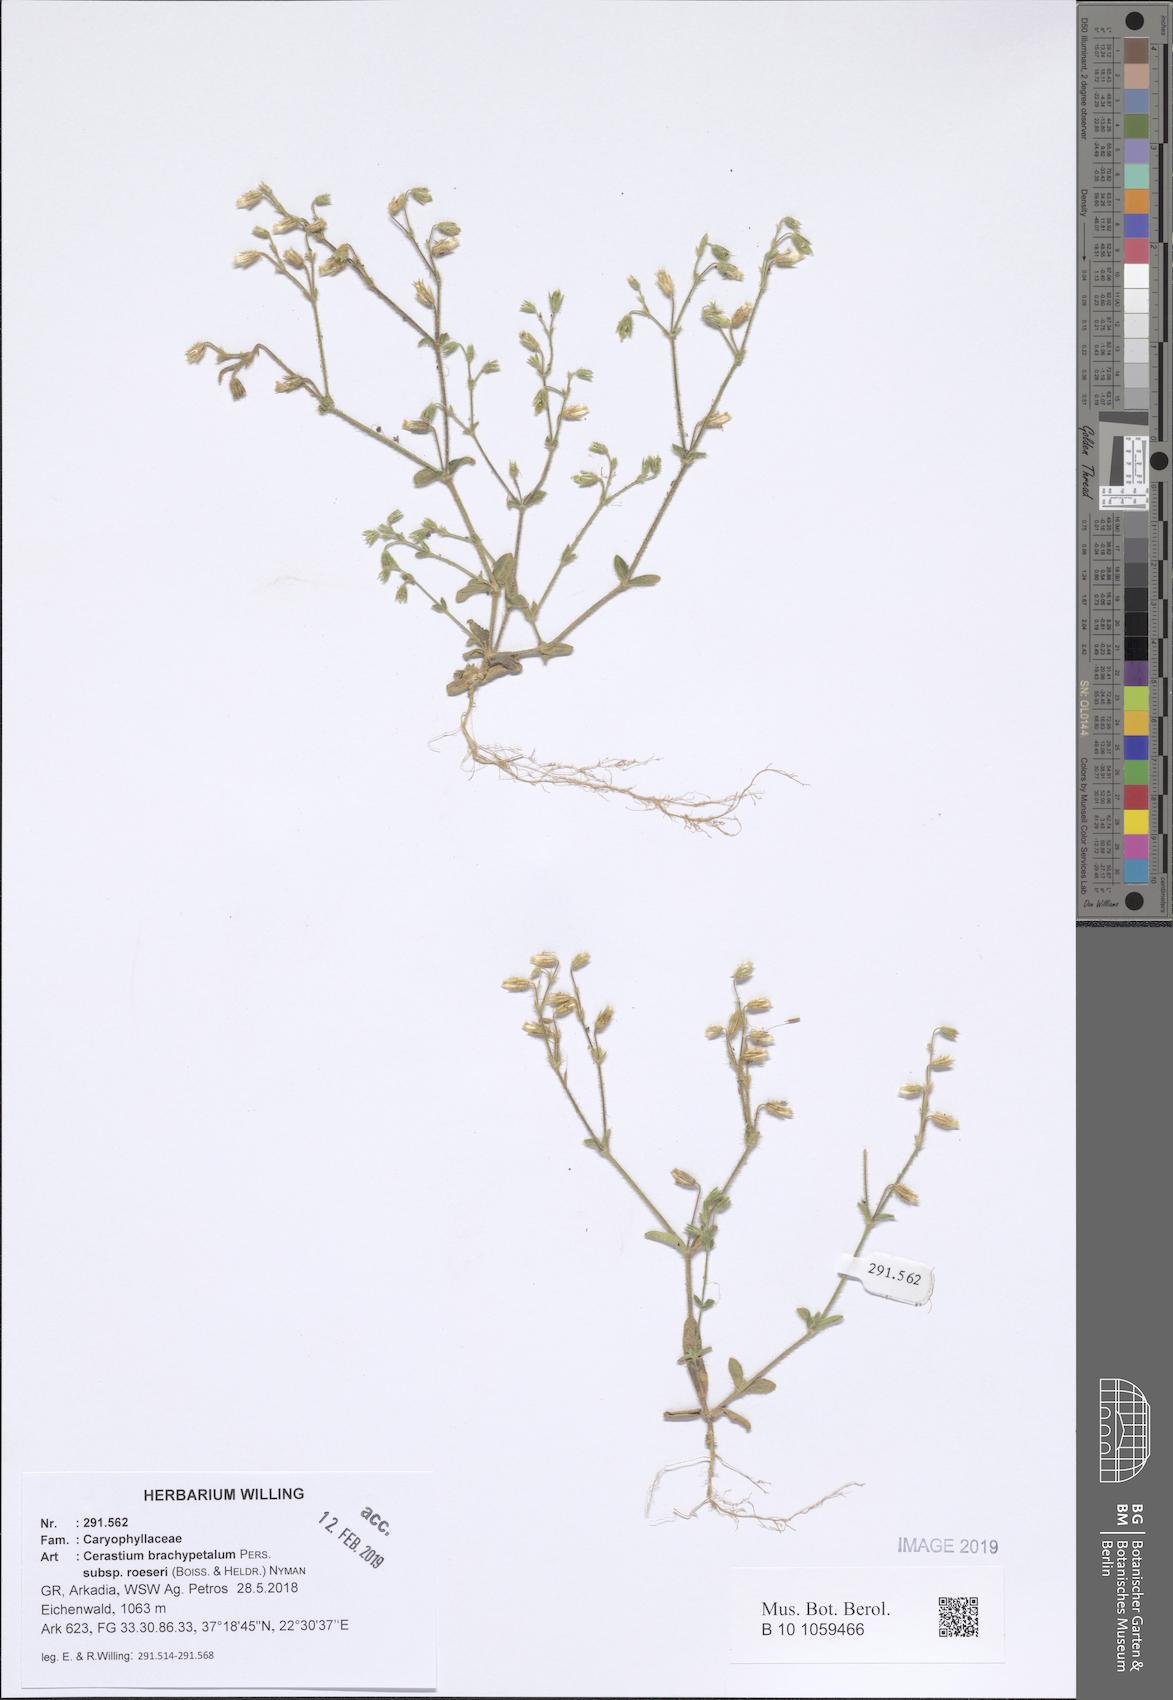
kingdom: Plantae
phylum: Tracheophyta
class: Magnoliopsida
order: Caryophyllales
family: Caryophyllaceae
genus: Cerastium
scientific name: Cerastium brachypetalum
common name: Grey mouse-ear
